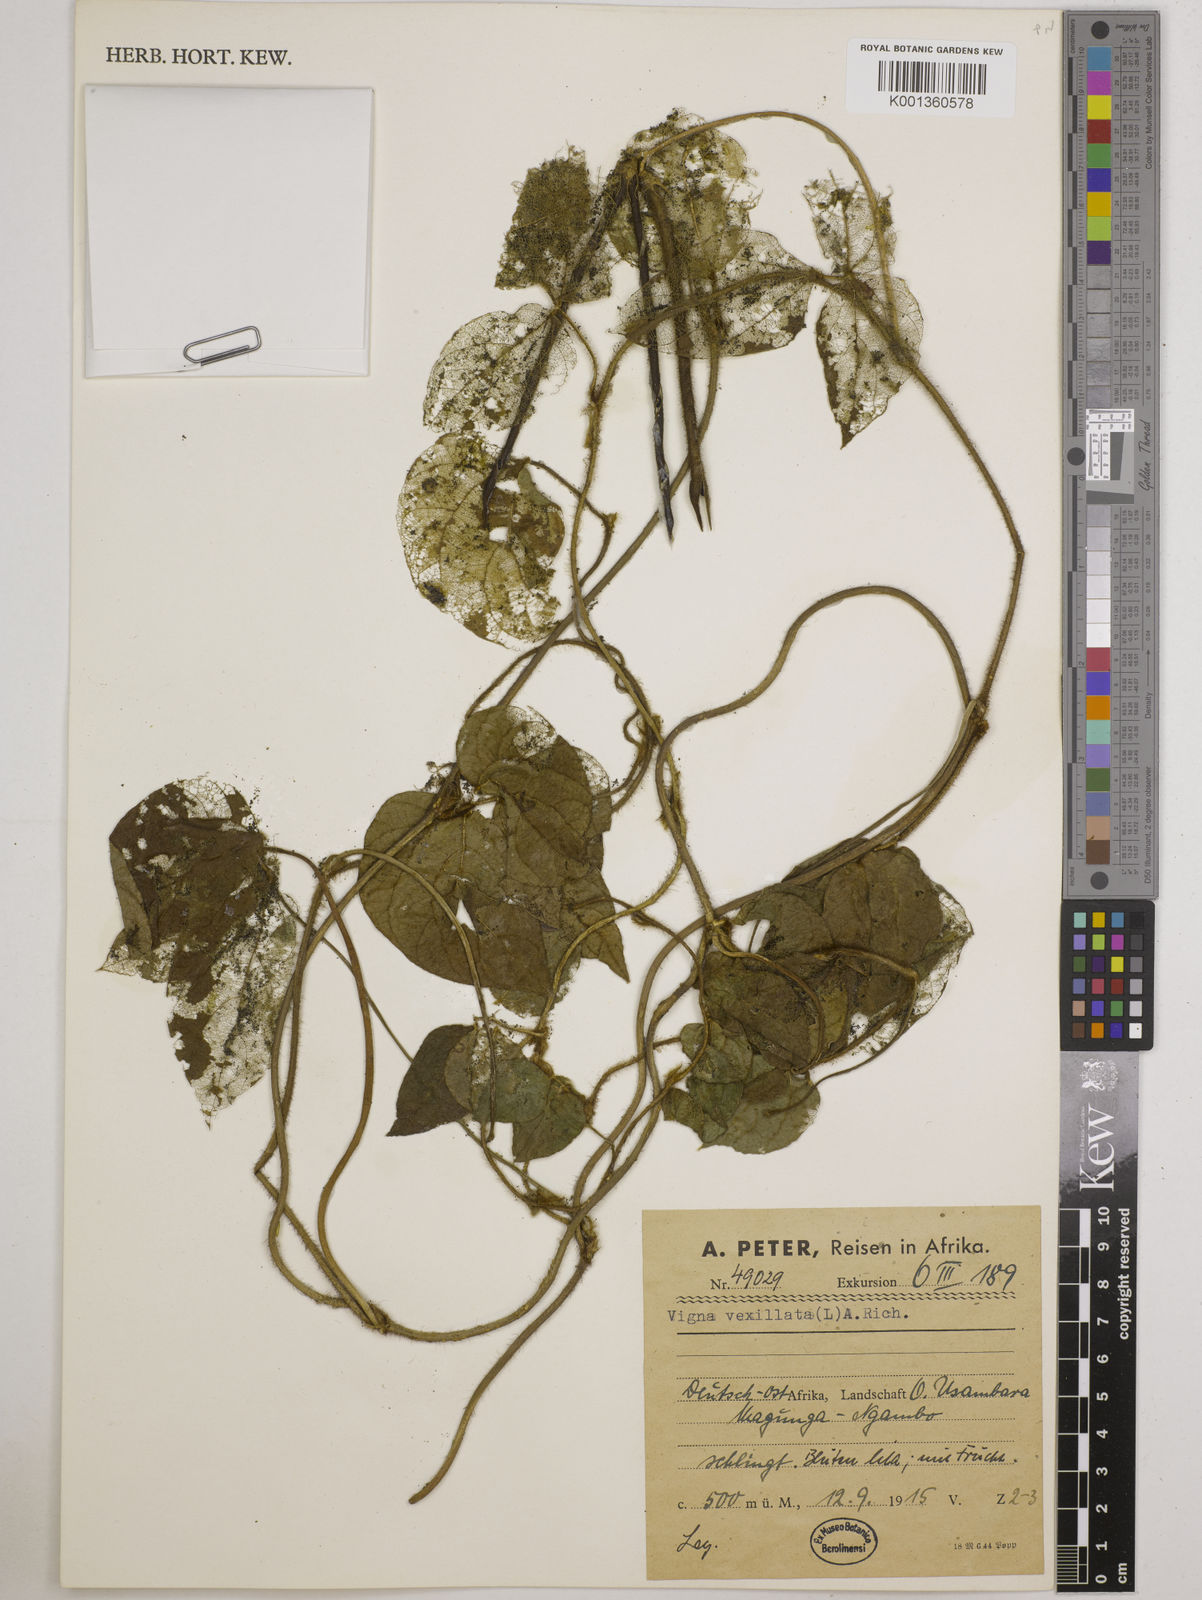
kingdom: Plantae
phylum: Tracheophyta
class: Magnoliopsida
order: Fabales
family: Fabaceae
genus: Vigna
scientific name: Vigna vexillata
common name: Zombi pea
